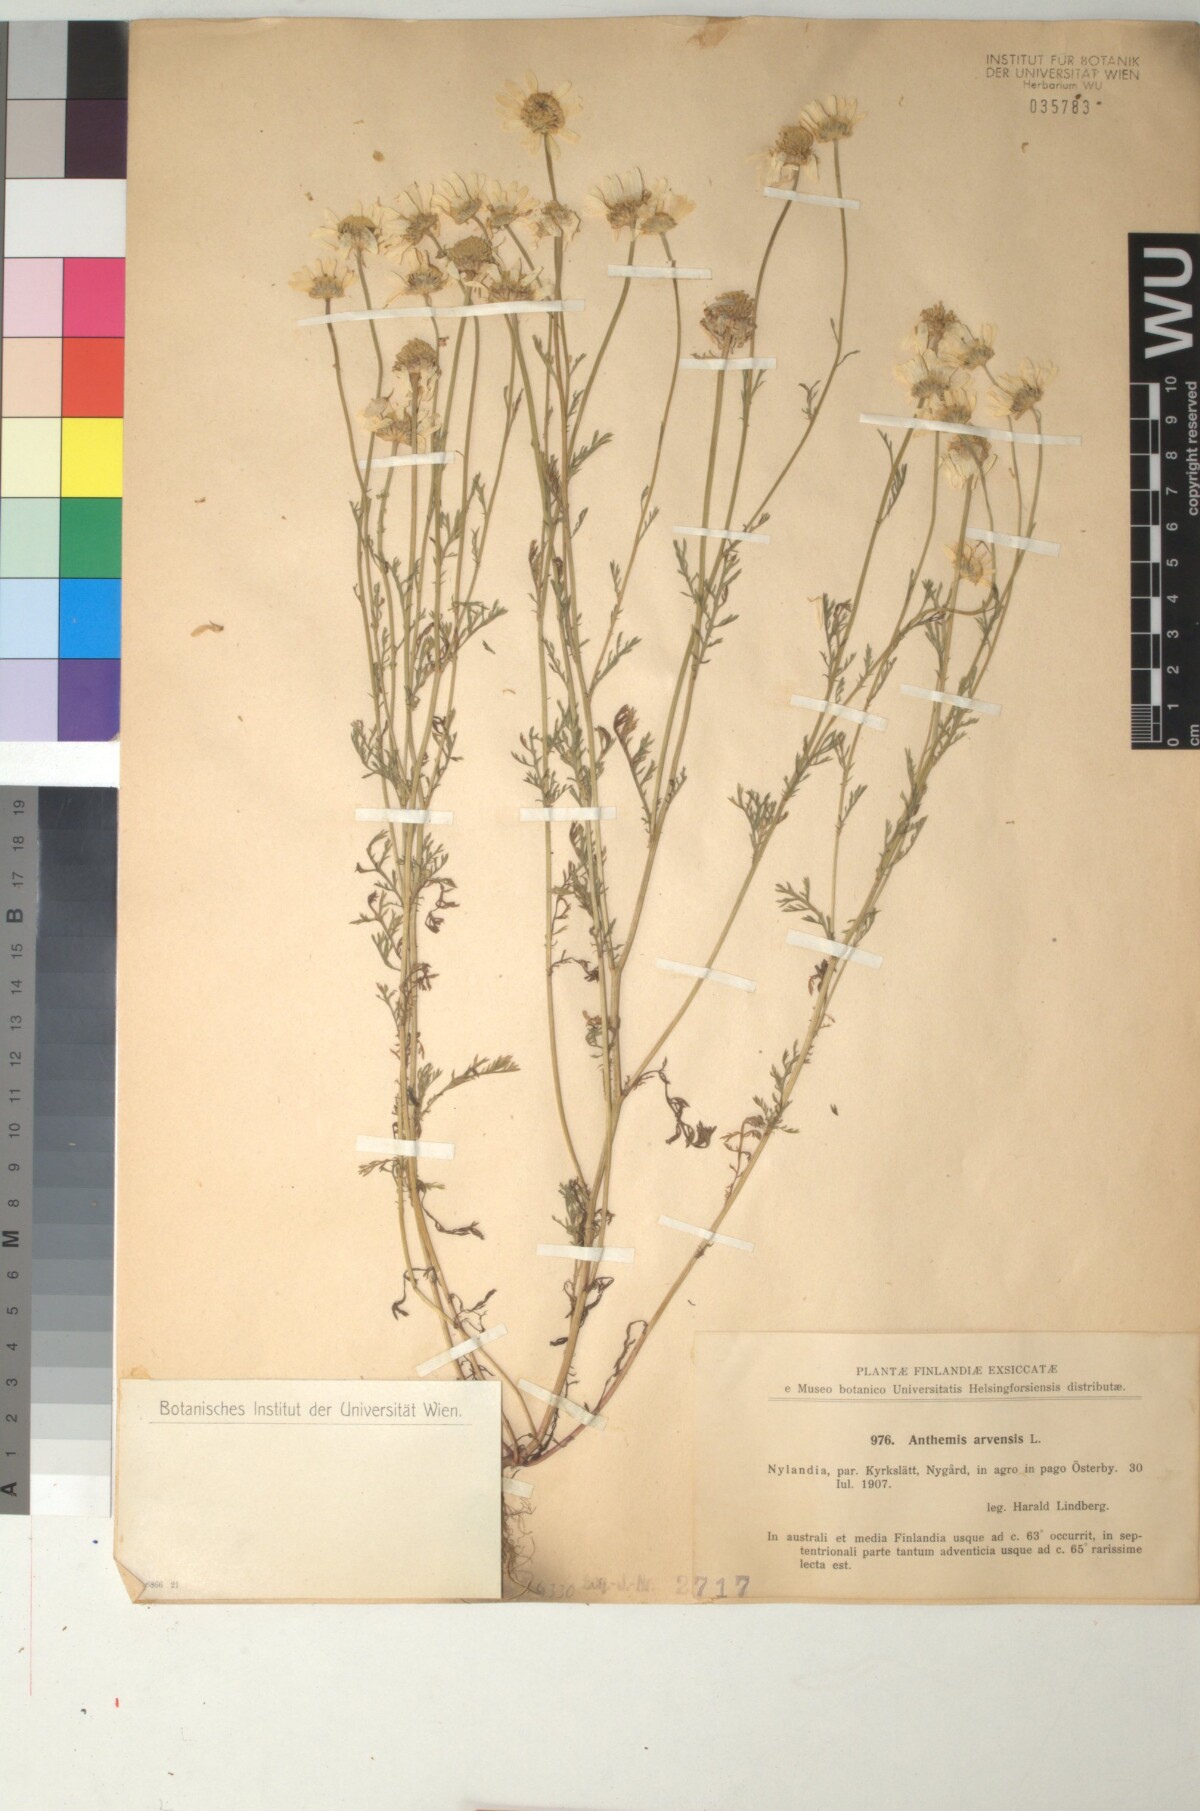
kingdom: Plantae
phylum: Tracheophyta
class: Magnoliopsida
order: Asterales
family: Asteraceae
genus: Anthemis
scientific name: Anthemis arvensis
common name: Corn chamomile
